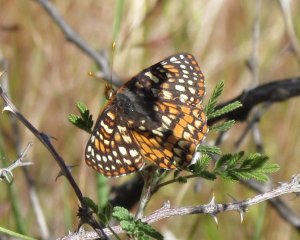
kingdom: Animalia
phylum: Arthropoda
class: Insecta
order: Lepidoptera
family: Nymphalidae
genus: Occidryas
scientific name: Occidryas chalcedona
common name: Chalcedon Checkerspot
